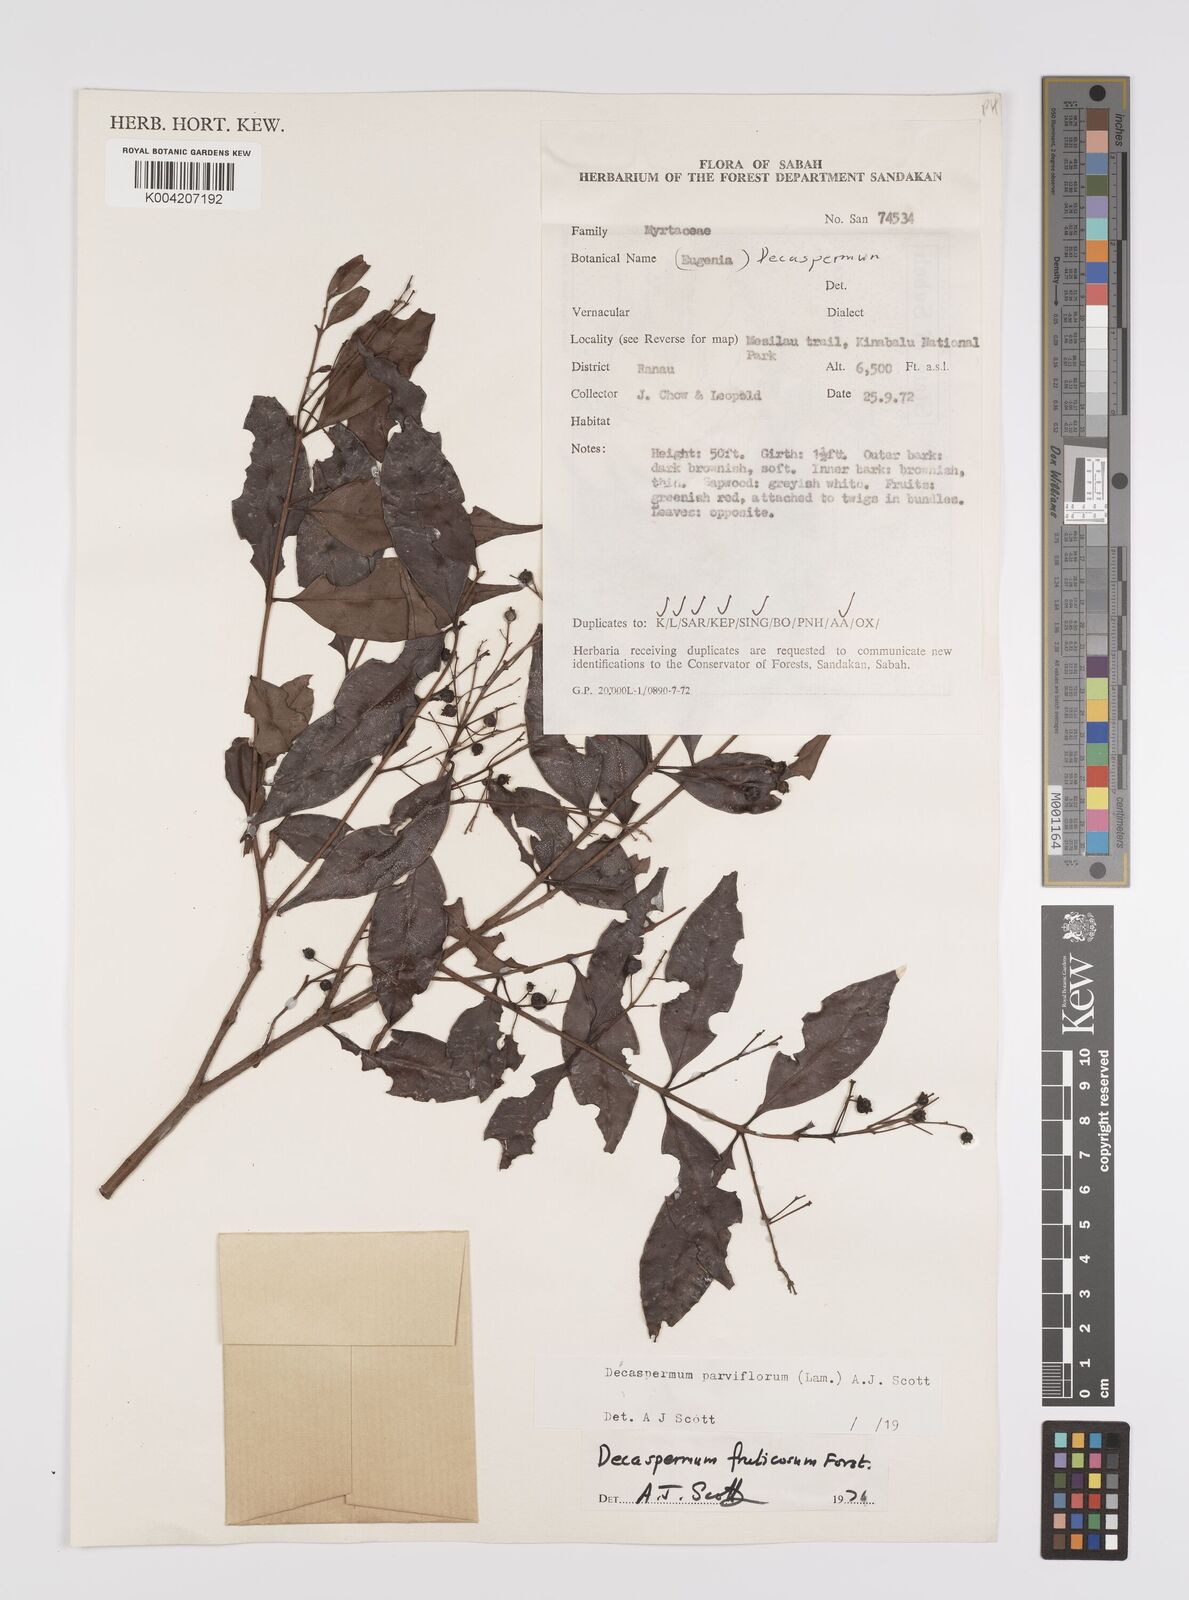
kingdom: Plantae
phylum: Tracheophyta
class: Magnoliopsida
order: Myrtales
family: Myrtaceae
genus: Decaspermum
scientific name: Decaspermum parviflorum
